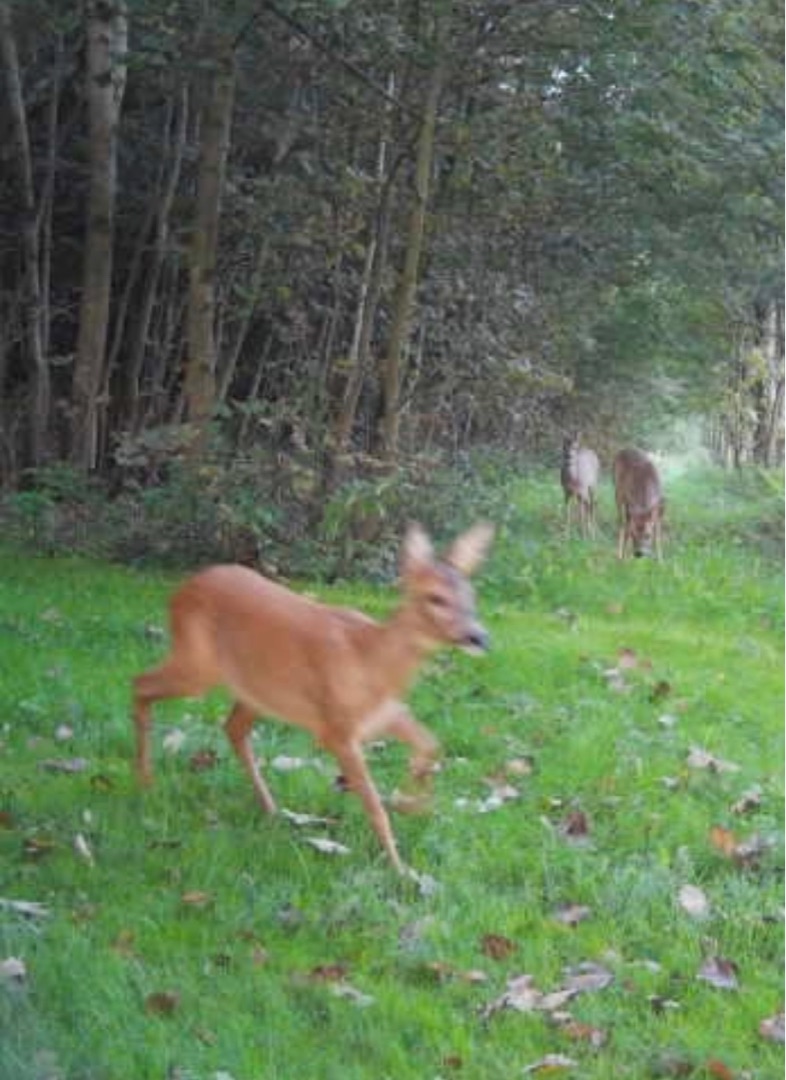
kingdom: Animalia
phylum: Chordata
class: Mammalia
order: Artiodactyla
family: Cervidae
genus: Capreolus
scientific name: Capreolus capreolus
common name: Rådyr
